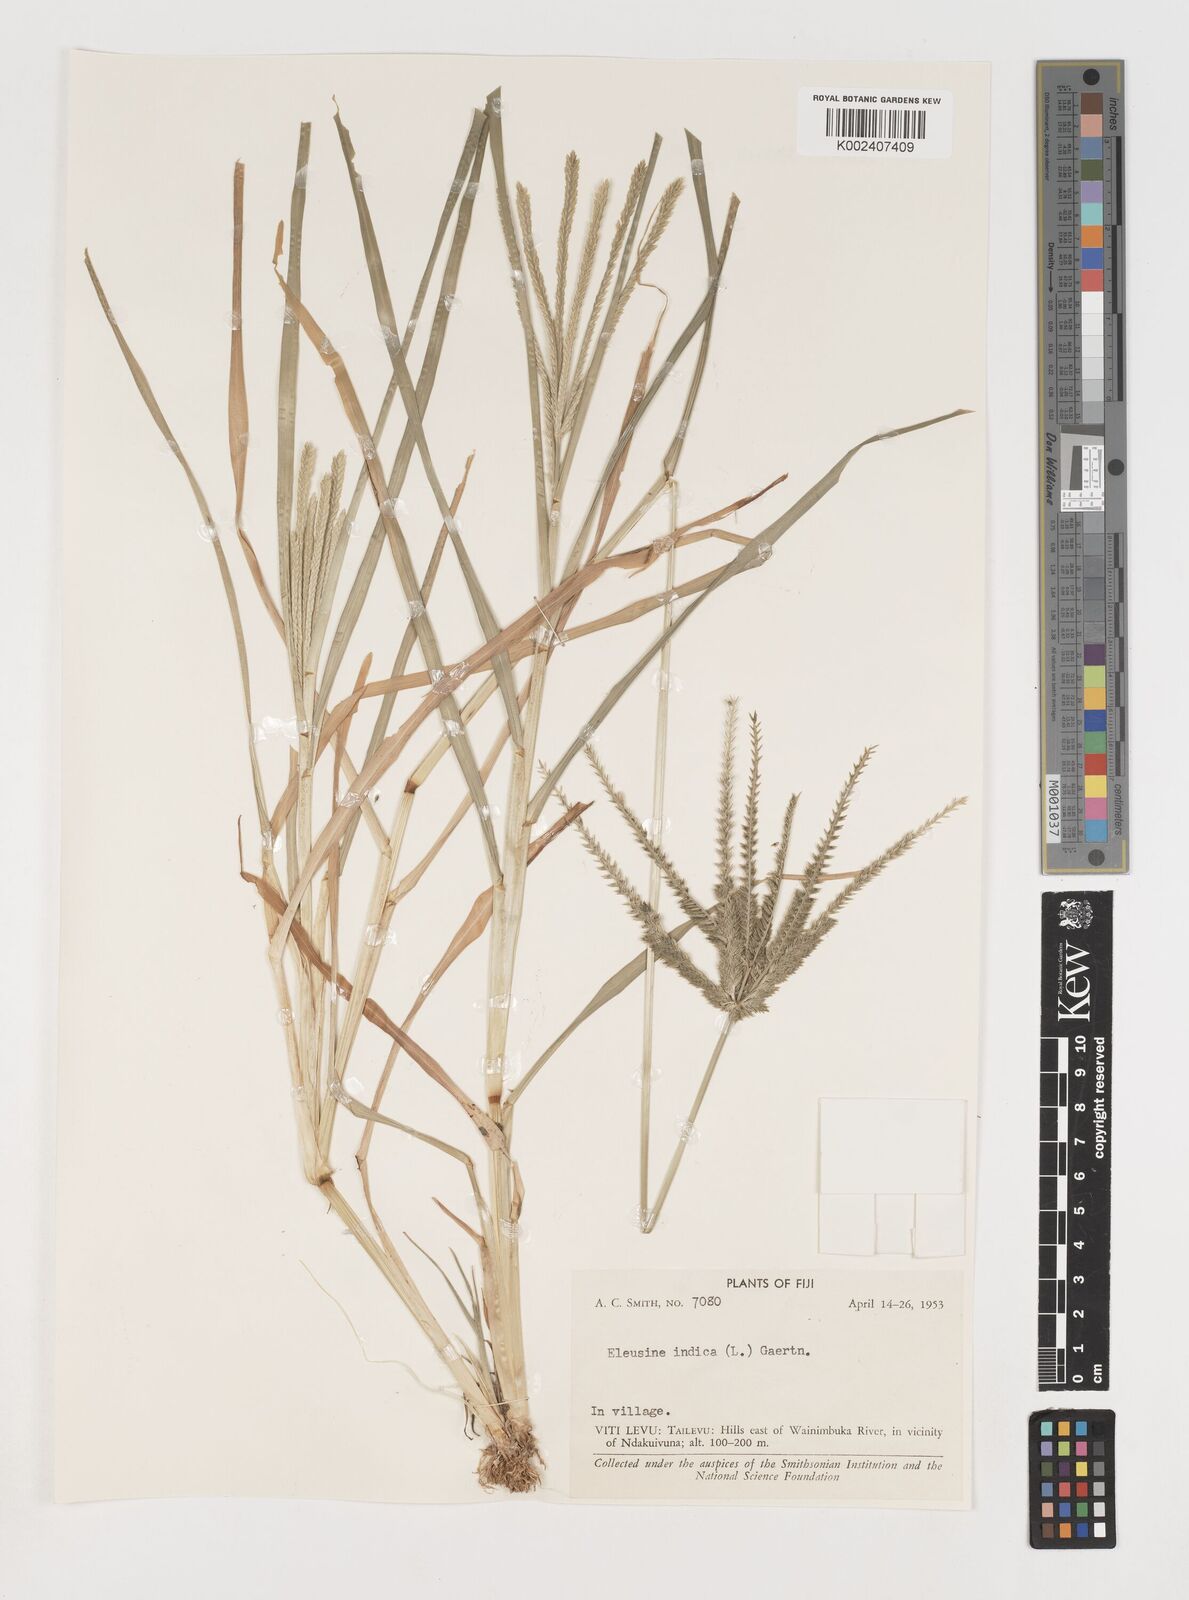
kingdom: Plantae
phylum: Tracheophyta
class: Liliopsida
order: Poales
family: Poaceae
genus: Eleusine
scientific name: Eleusine indica
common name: Yard-grass
